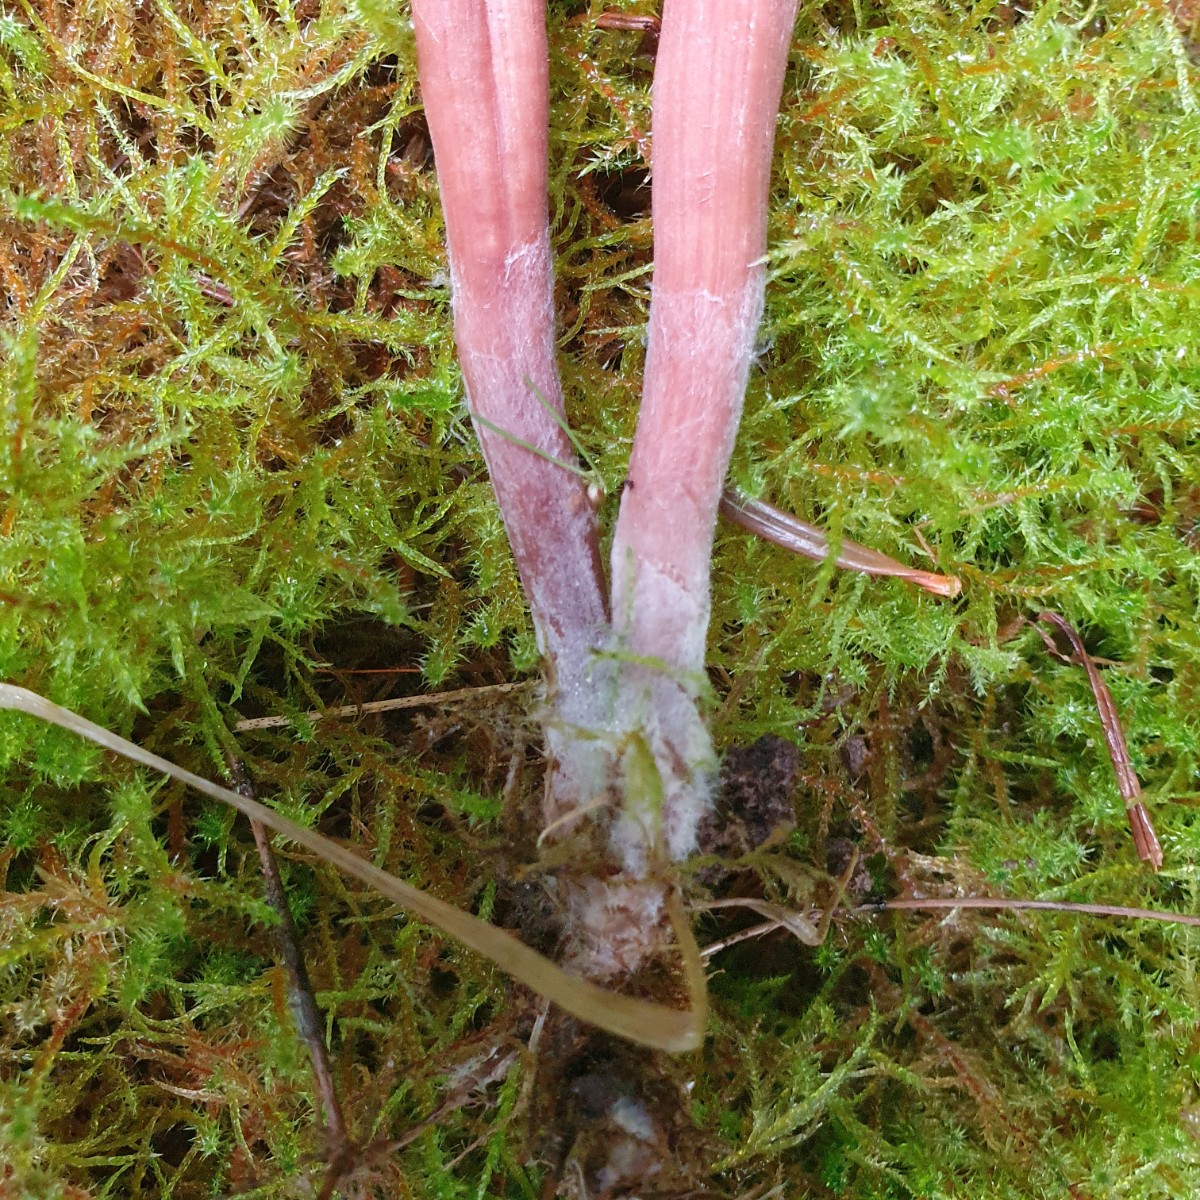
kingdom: Fungi
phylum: Basidiomycota
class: Agaricomycetes
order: Agaricales
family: Hydnangiaceae
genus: Laccaria
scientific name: Laccaria proxima
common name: stor ametysthat
